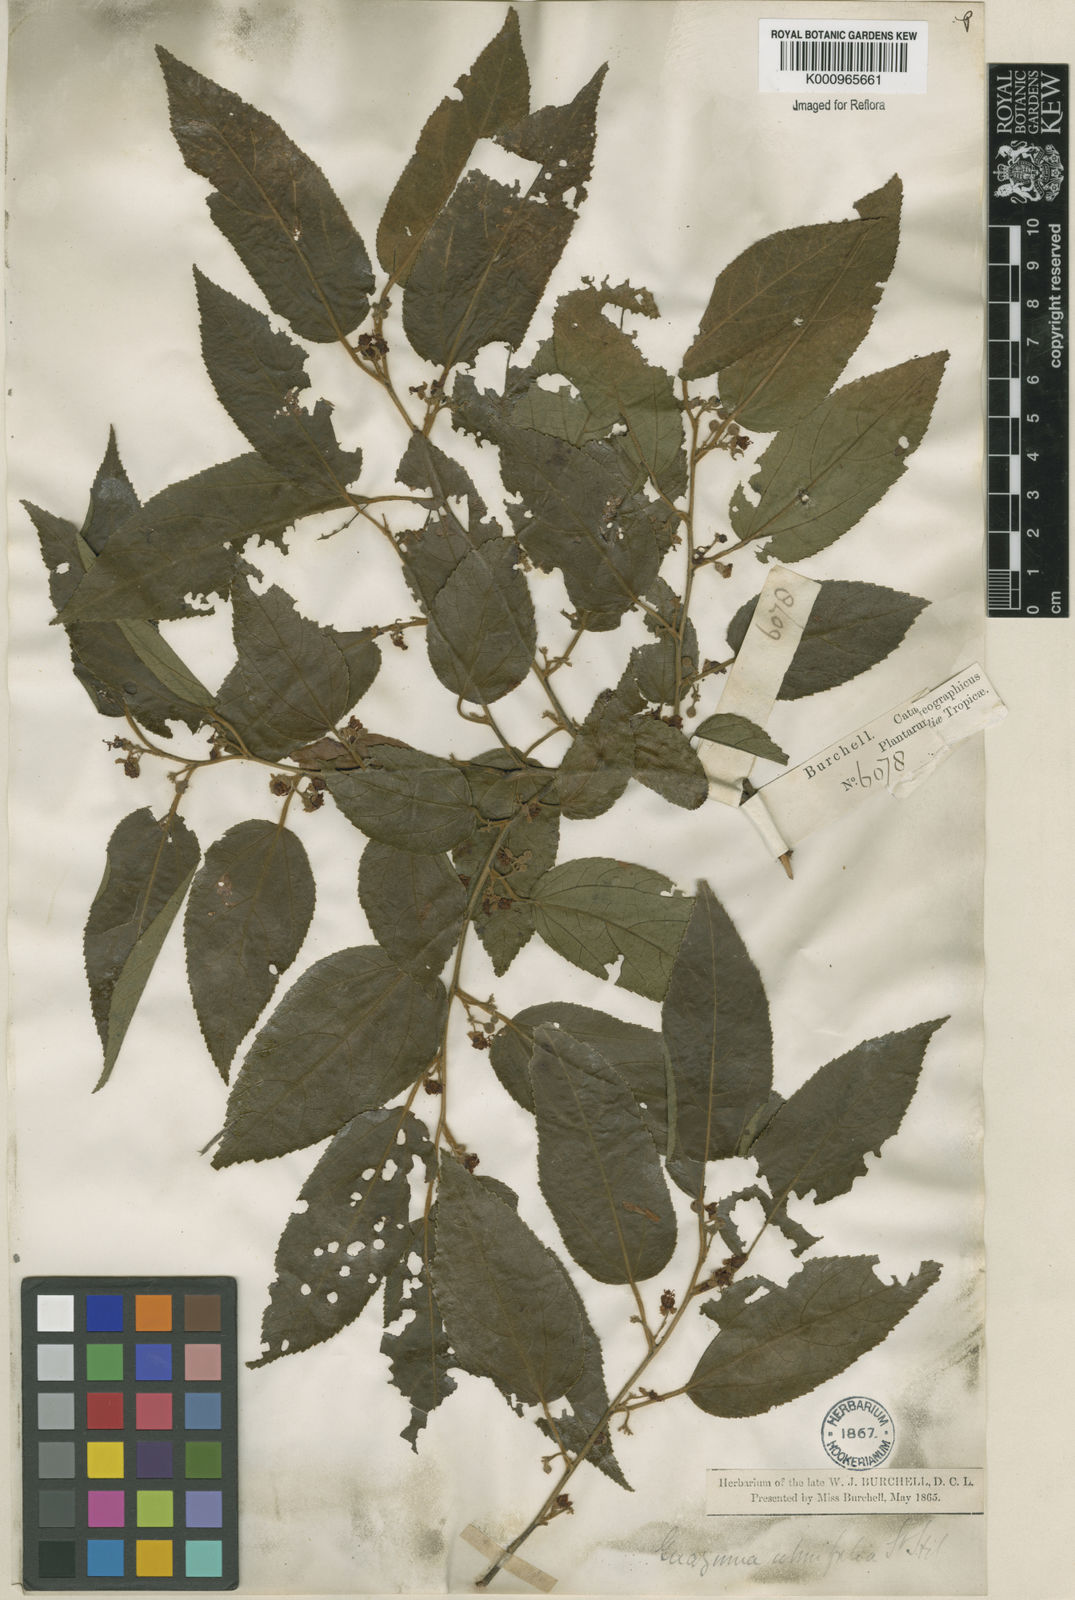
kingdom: Plantae
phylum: Tracheophyta
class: Magnoliopsida
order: Malvales
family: Malvaceae
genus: Guazuma
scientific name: Guazuma ulmifolia
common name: Bastard-cedar
